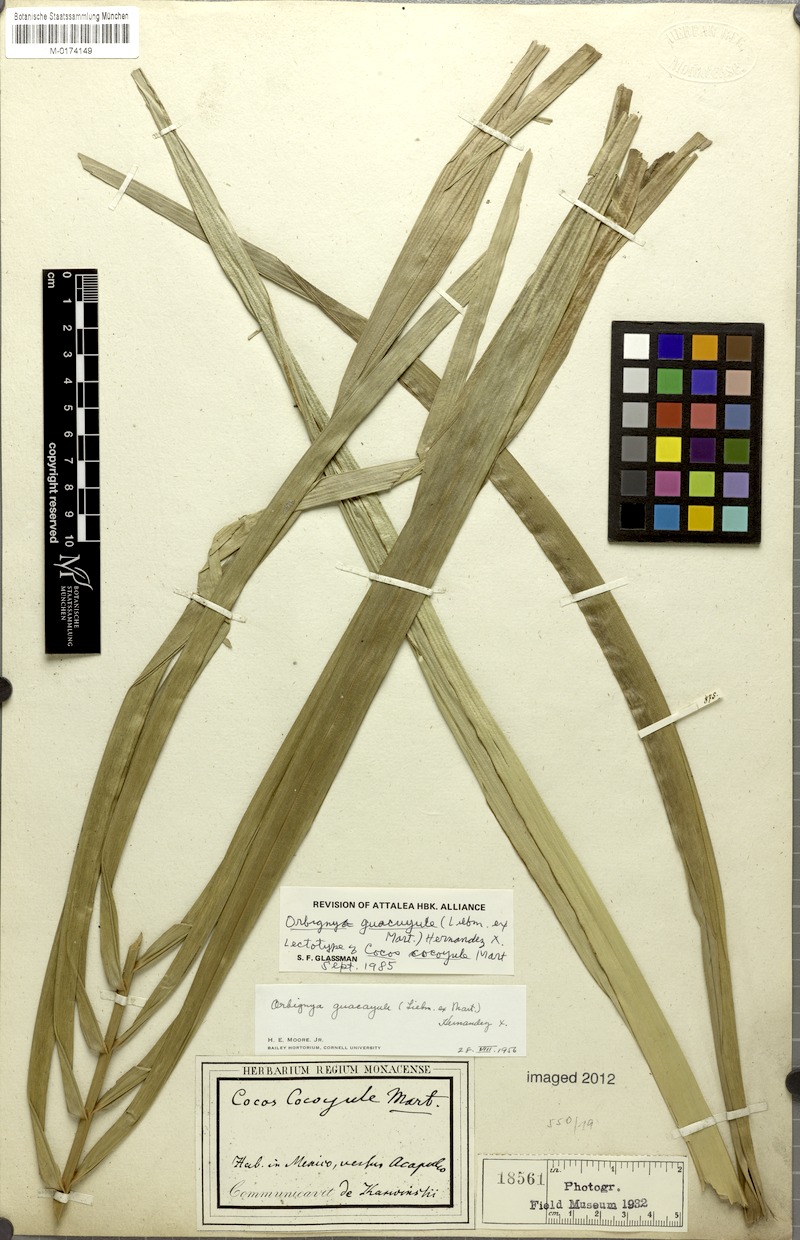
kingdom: Plantae
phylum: Tracheophyta
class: Liliopsida
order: Arecales
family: Arecaceae
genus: Attalea
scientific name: Attalea guacuyule
